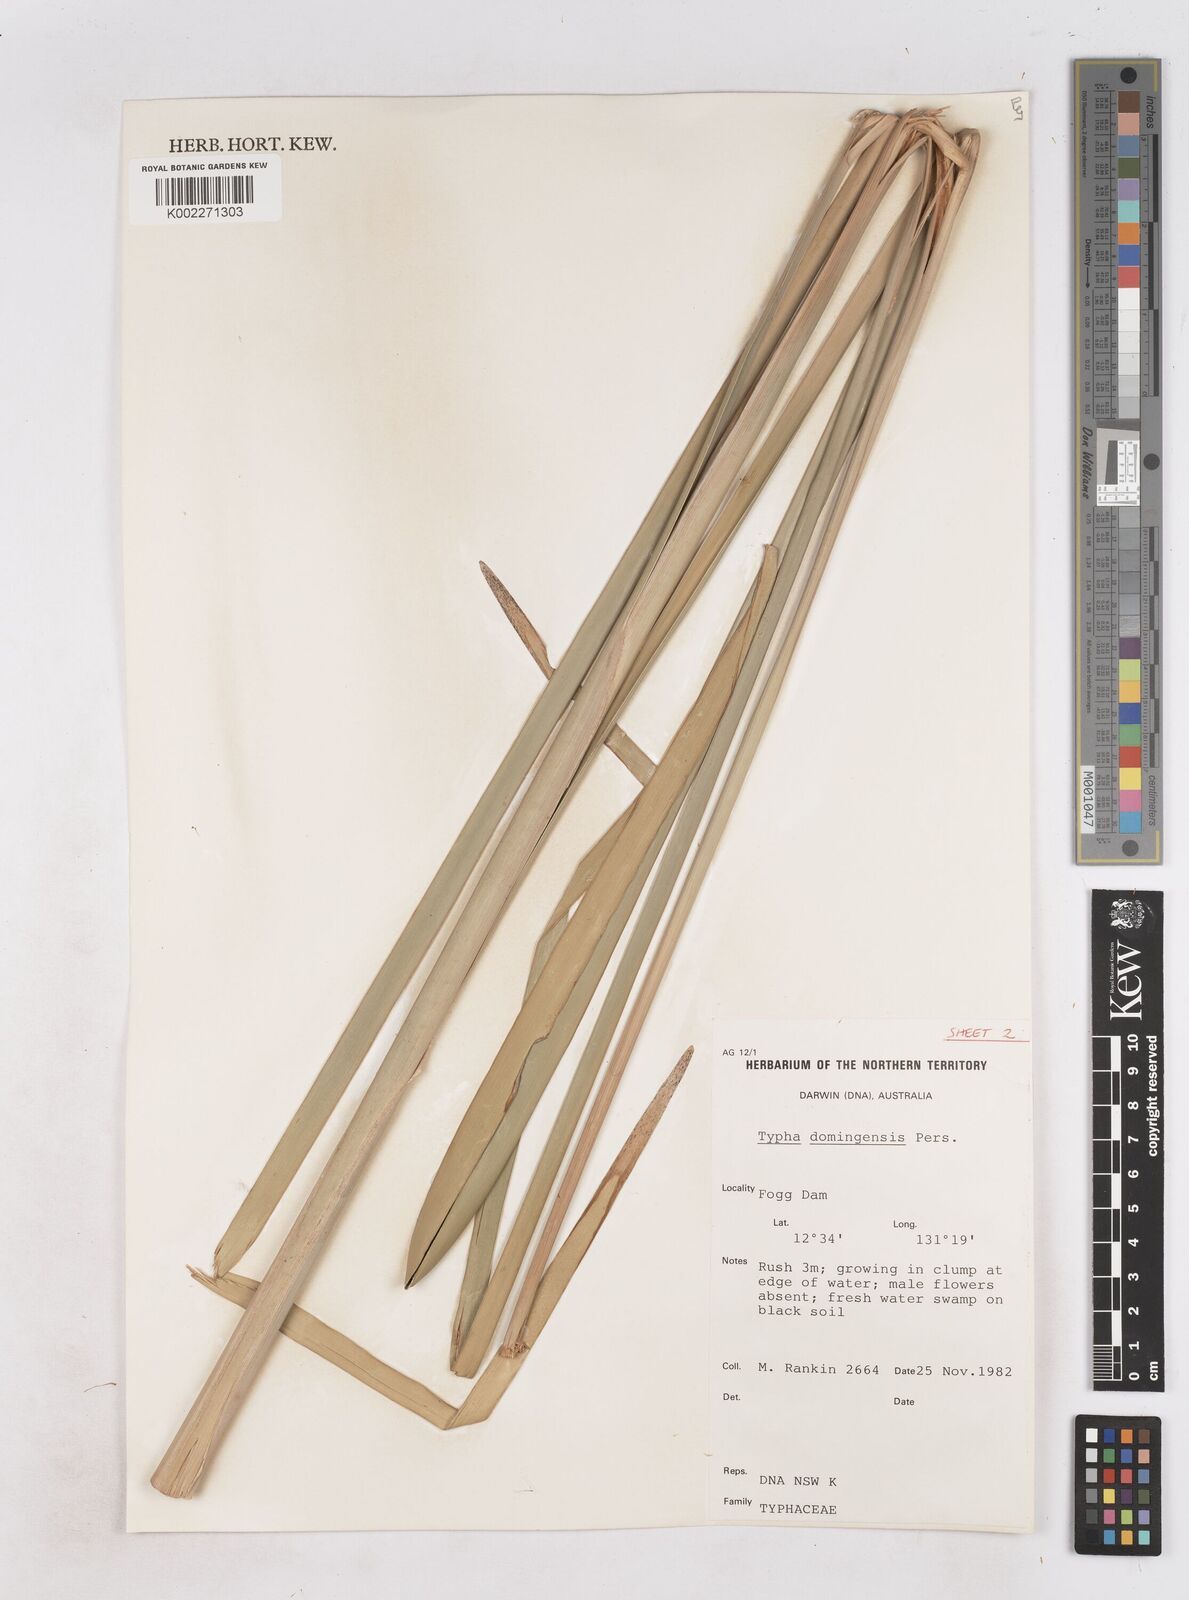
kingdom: Plantae
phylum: Tracheophyta
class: Liliopsida
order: Poales
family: Typhaceae
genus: Typha
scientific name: Typha domingensis
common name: Southern cattail
